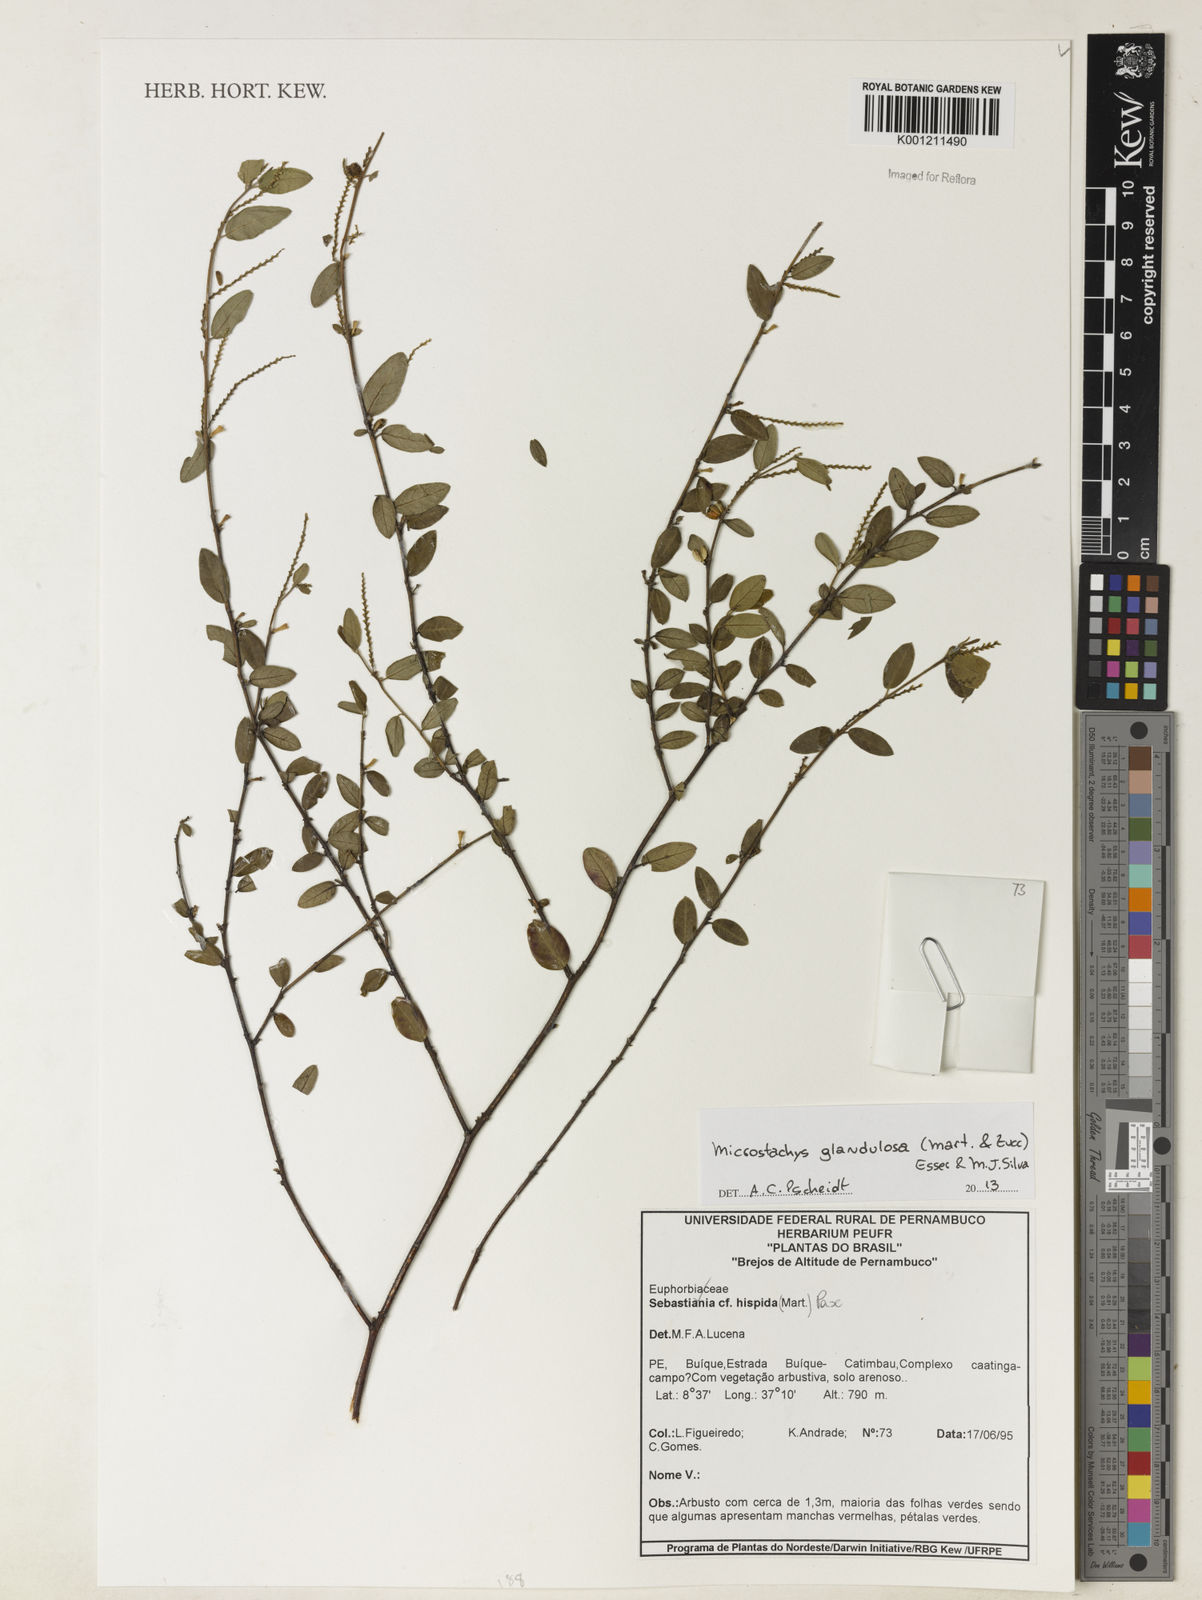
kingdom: Plantae
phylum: Tracheophyta
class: Magnoliopsida
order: Malpighiales
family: Euphorbiaceae
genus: Microstachys
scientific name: Microstachys glandulosa
